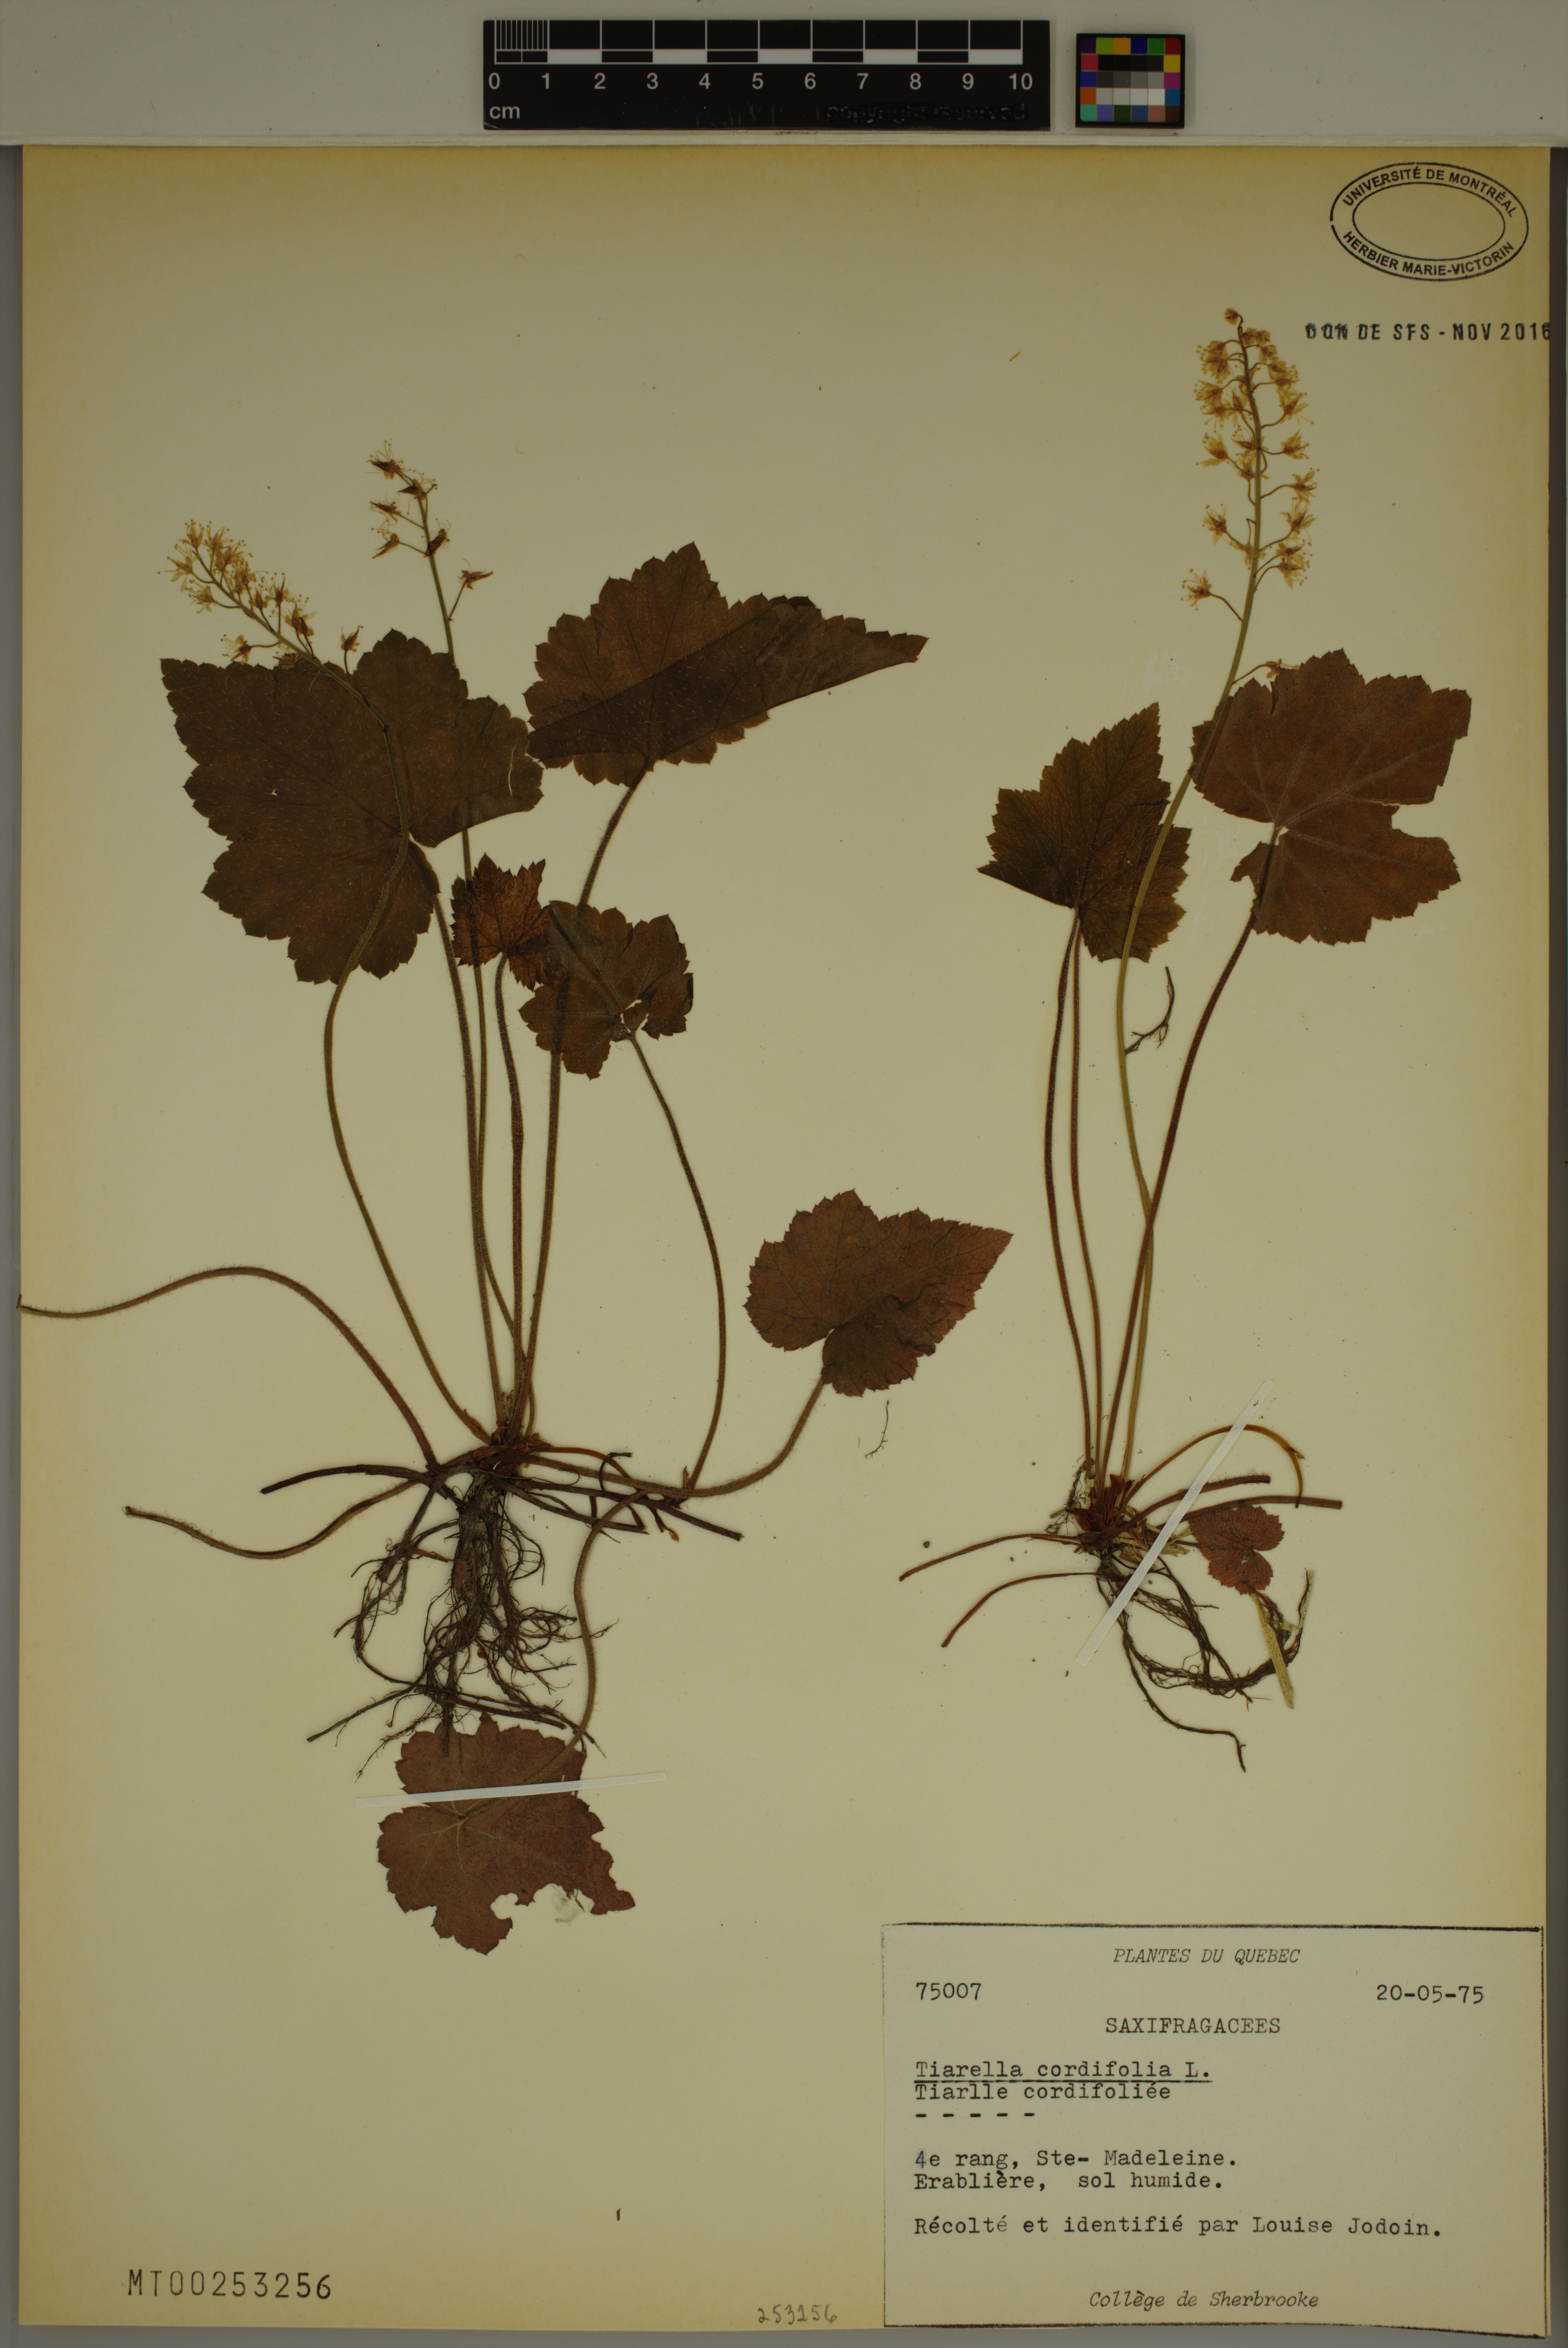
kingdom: Plantae
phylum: Tracheophyta
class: Magnoliopsida
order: Saxifragales
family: Saxifragaceae
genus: Tiarella
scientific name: Tiarella cordifolia
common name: Foamflower
